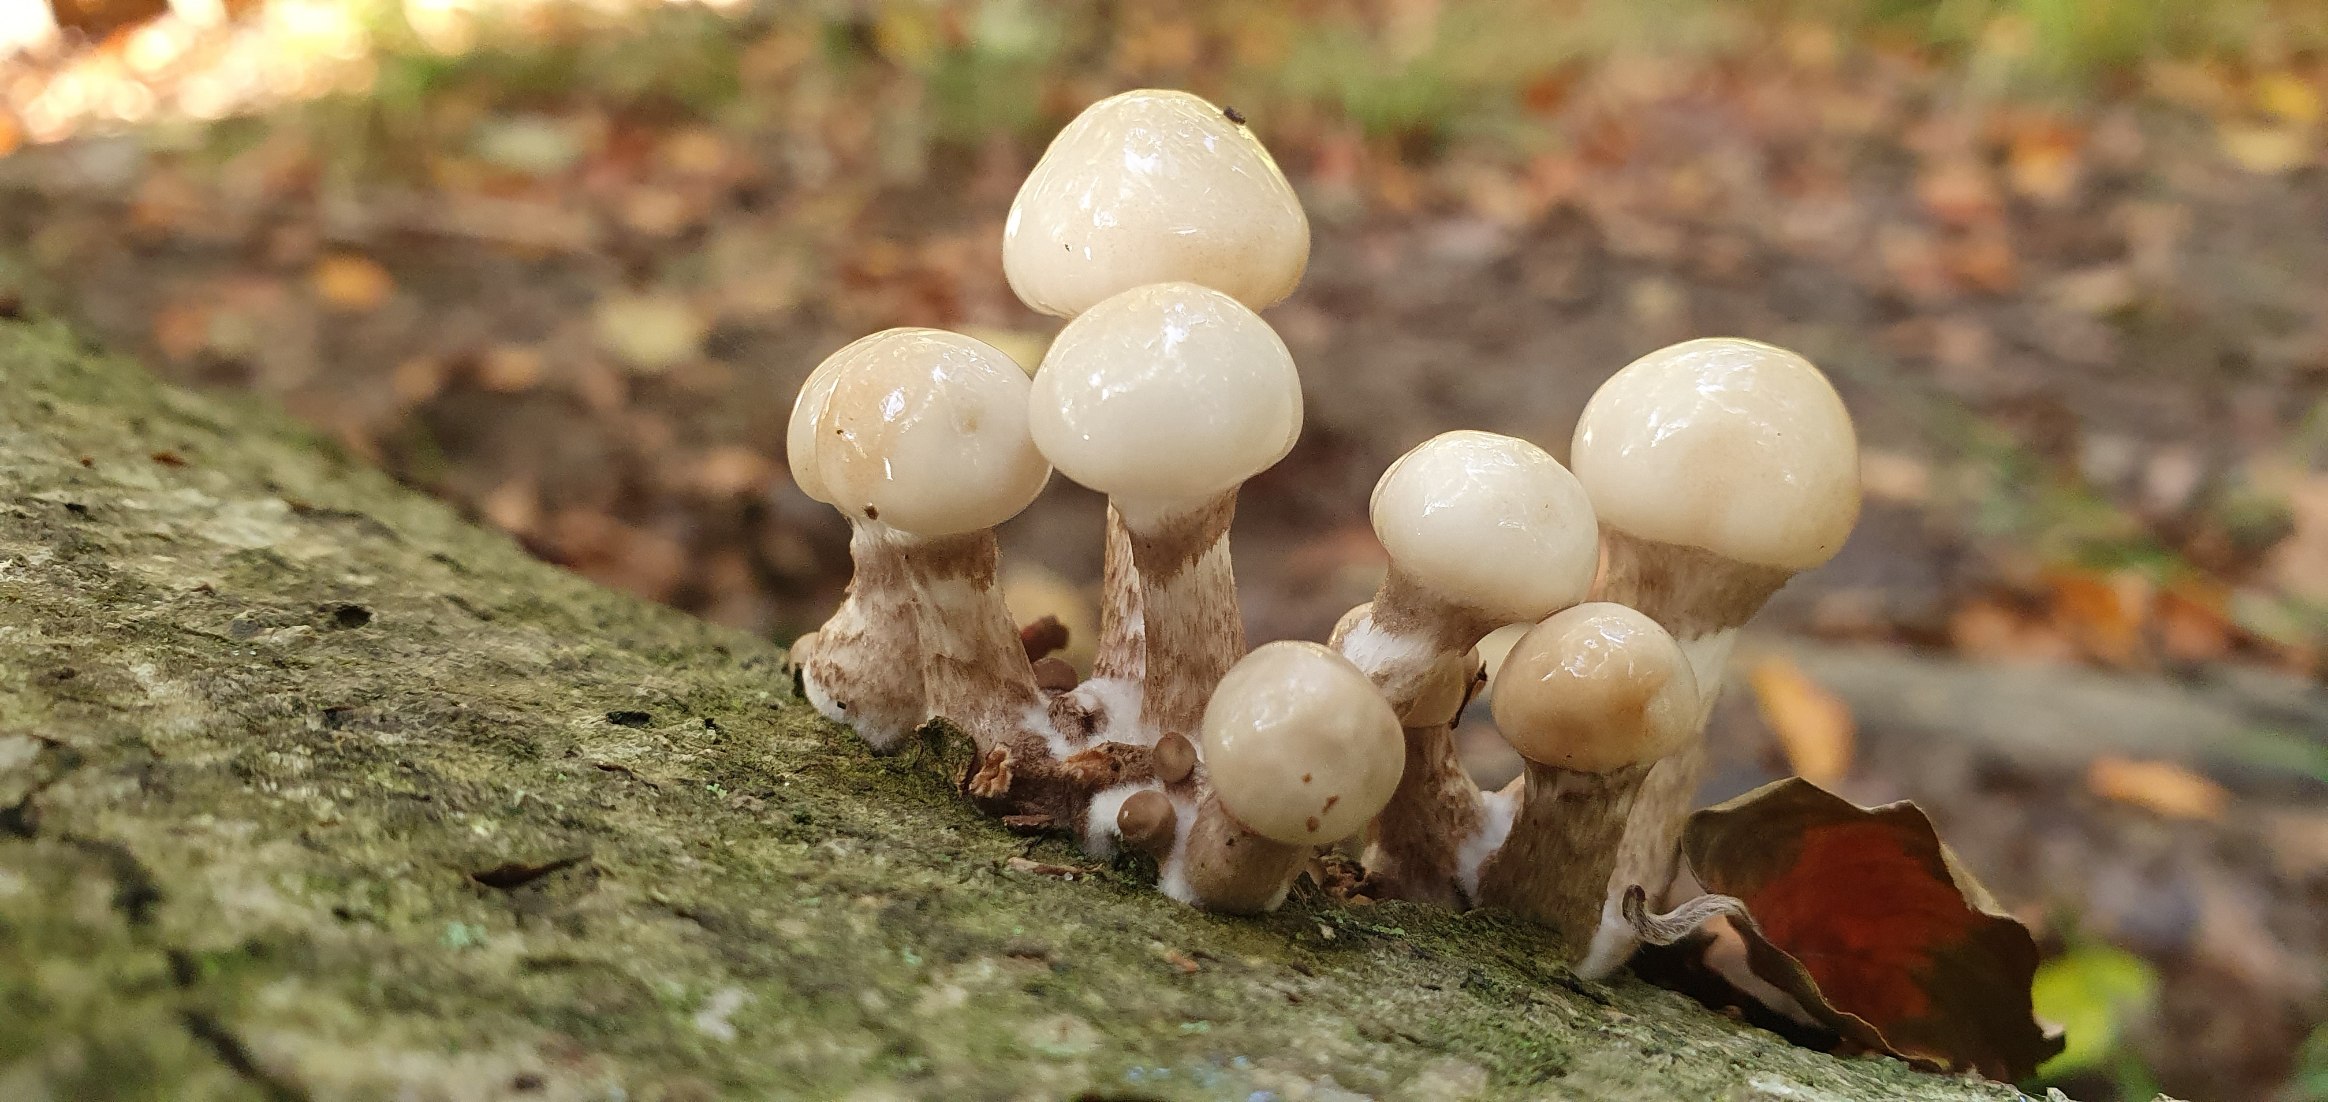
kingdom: Fungi
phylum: Basidiomycota
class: Agaricomycetes
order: Agaricales
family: Physalacriaceae
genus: Mucidula
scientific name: Mucidula mucida
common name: Porcelænshat
